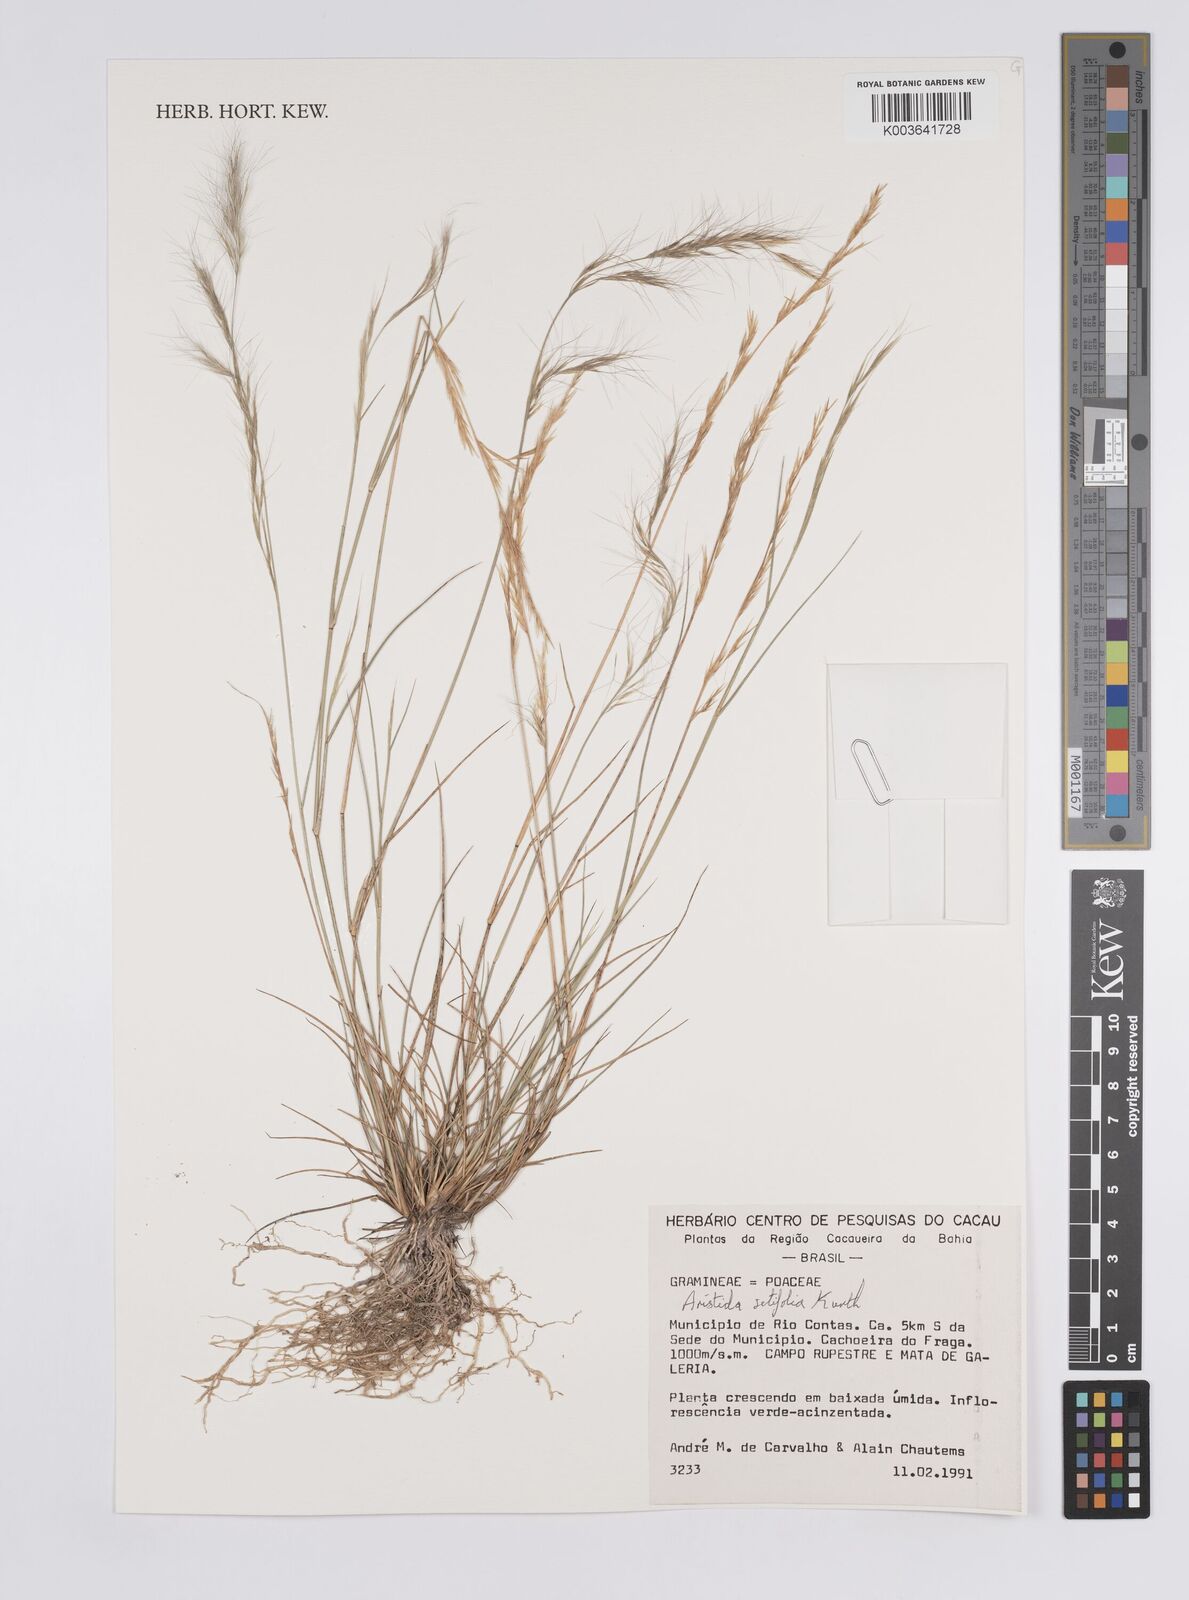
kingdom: Plantae
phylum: Tracheophyta
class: Liliopsida
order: Poales
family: Poaceae
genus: Aristida
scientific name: Aristida setifolia
